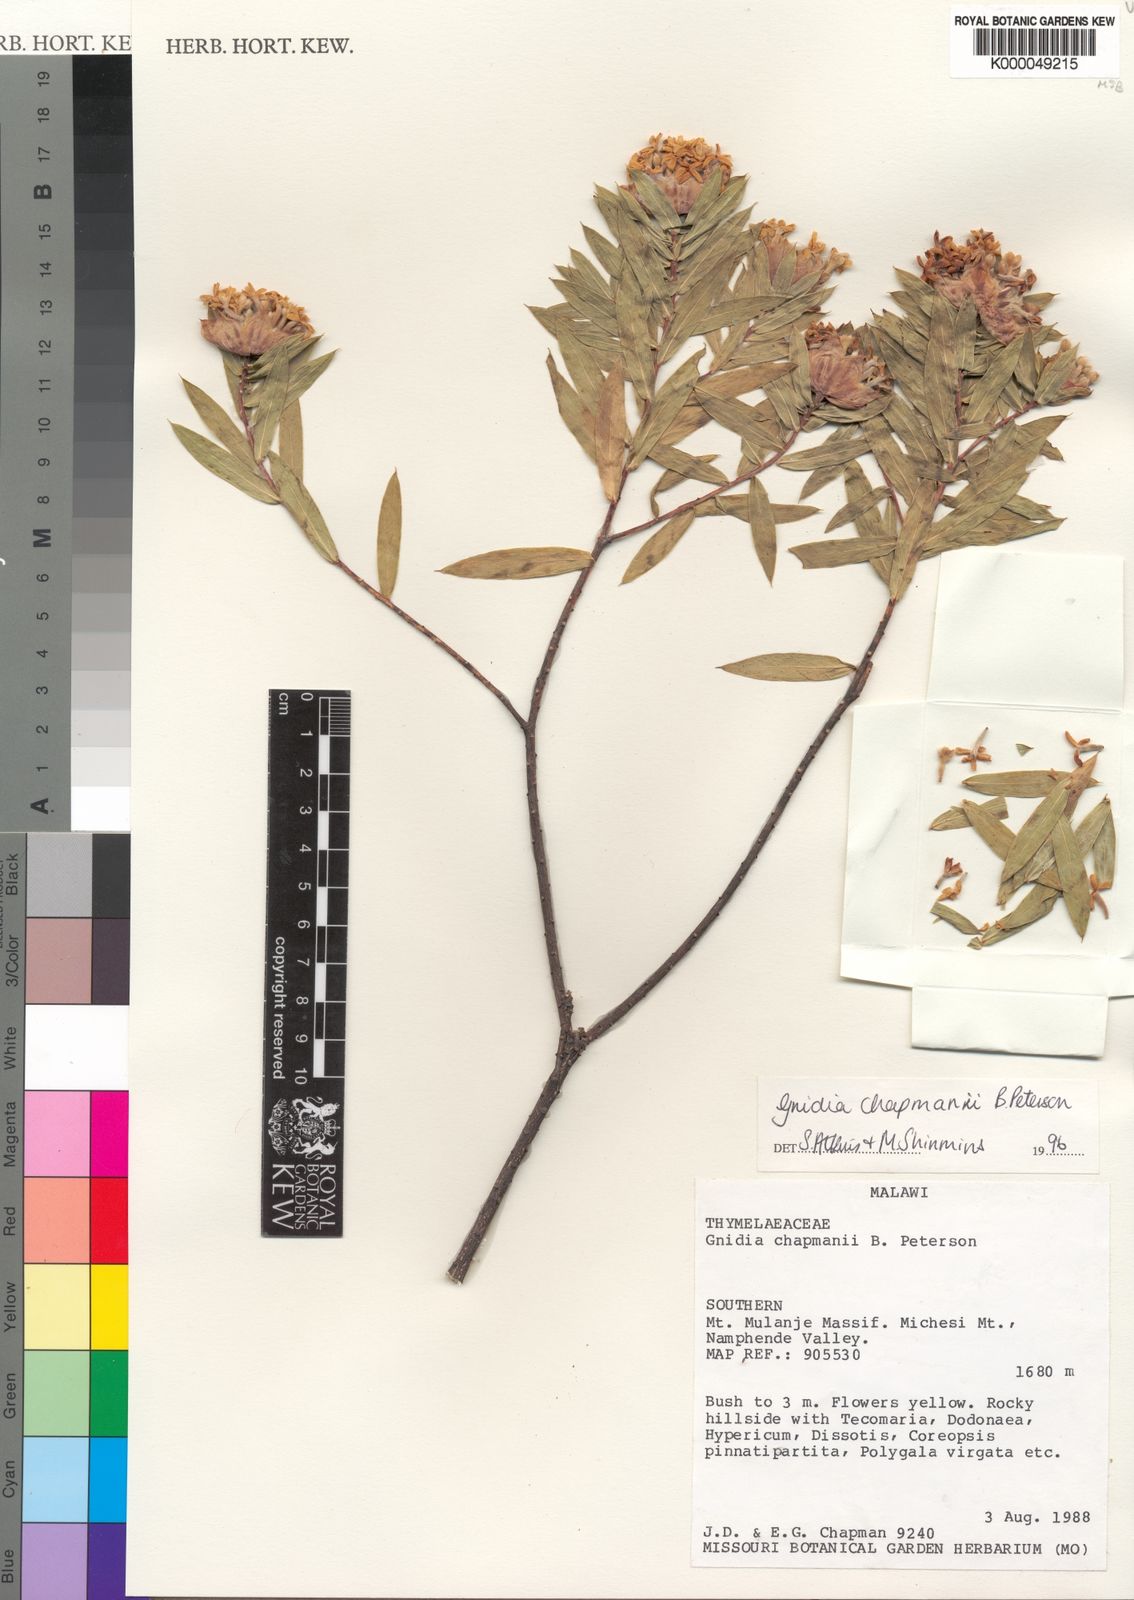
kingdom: Plantae
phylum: Tracheophyta
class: Magnoliopsida
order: Malvales
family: Thymelaeaceae
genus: Gnidia
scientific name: Gnidia chapmanii
